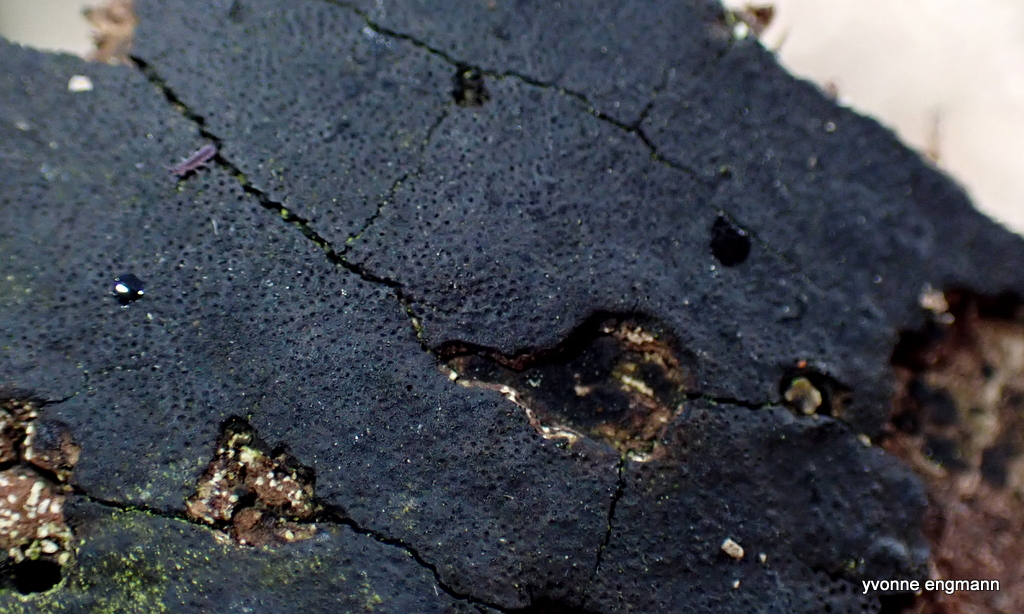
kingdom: Fungi
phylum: Ascomycota
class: Sordariomycetes
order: Xylariales
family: Diatrypaceae
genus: Eutypa
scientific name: Eutypa spinosa
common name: grov kulskorpe
